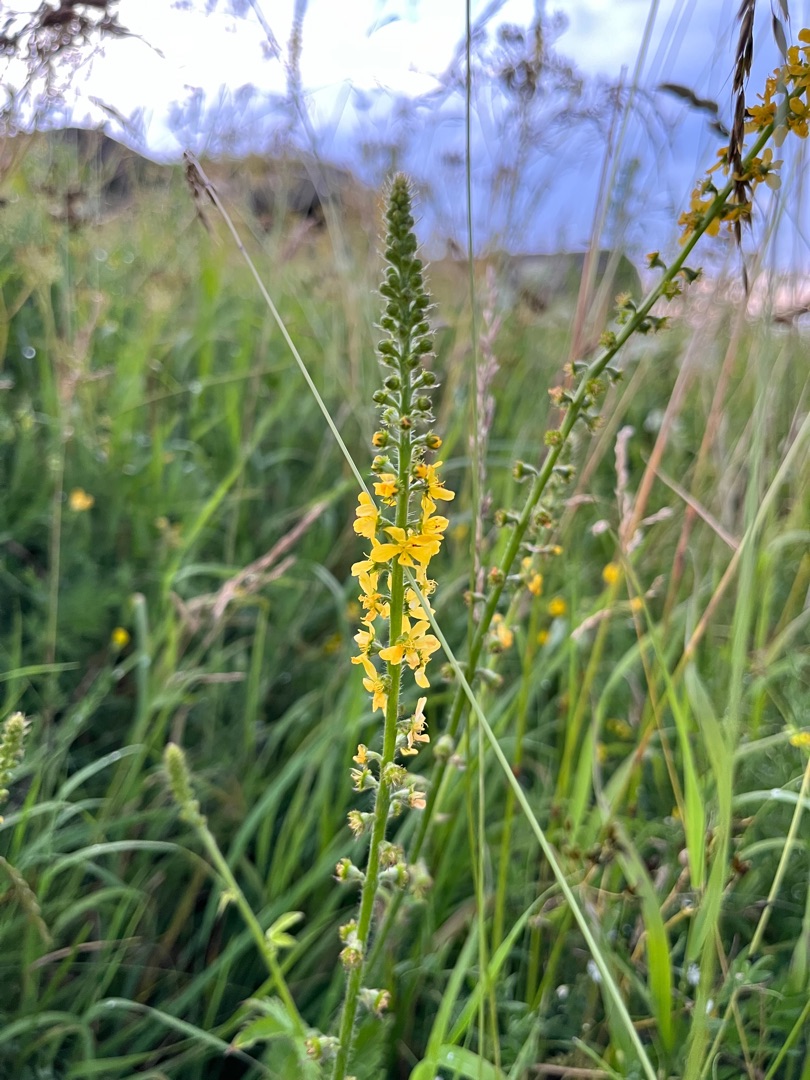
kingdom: Plantae
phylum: Tracheophyta
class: Magnoliopsida
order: Rosales
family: Rosaceae
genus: Agrimonia
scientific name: Agrimonia procera
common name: Vellugtende agermåne
